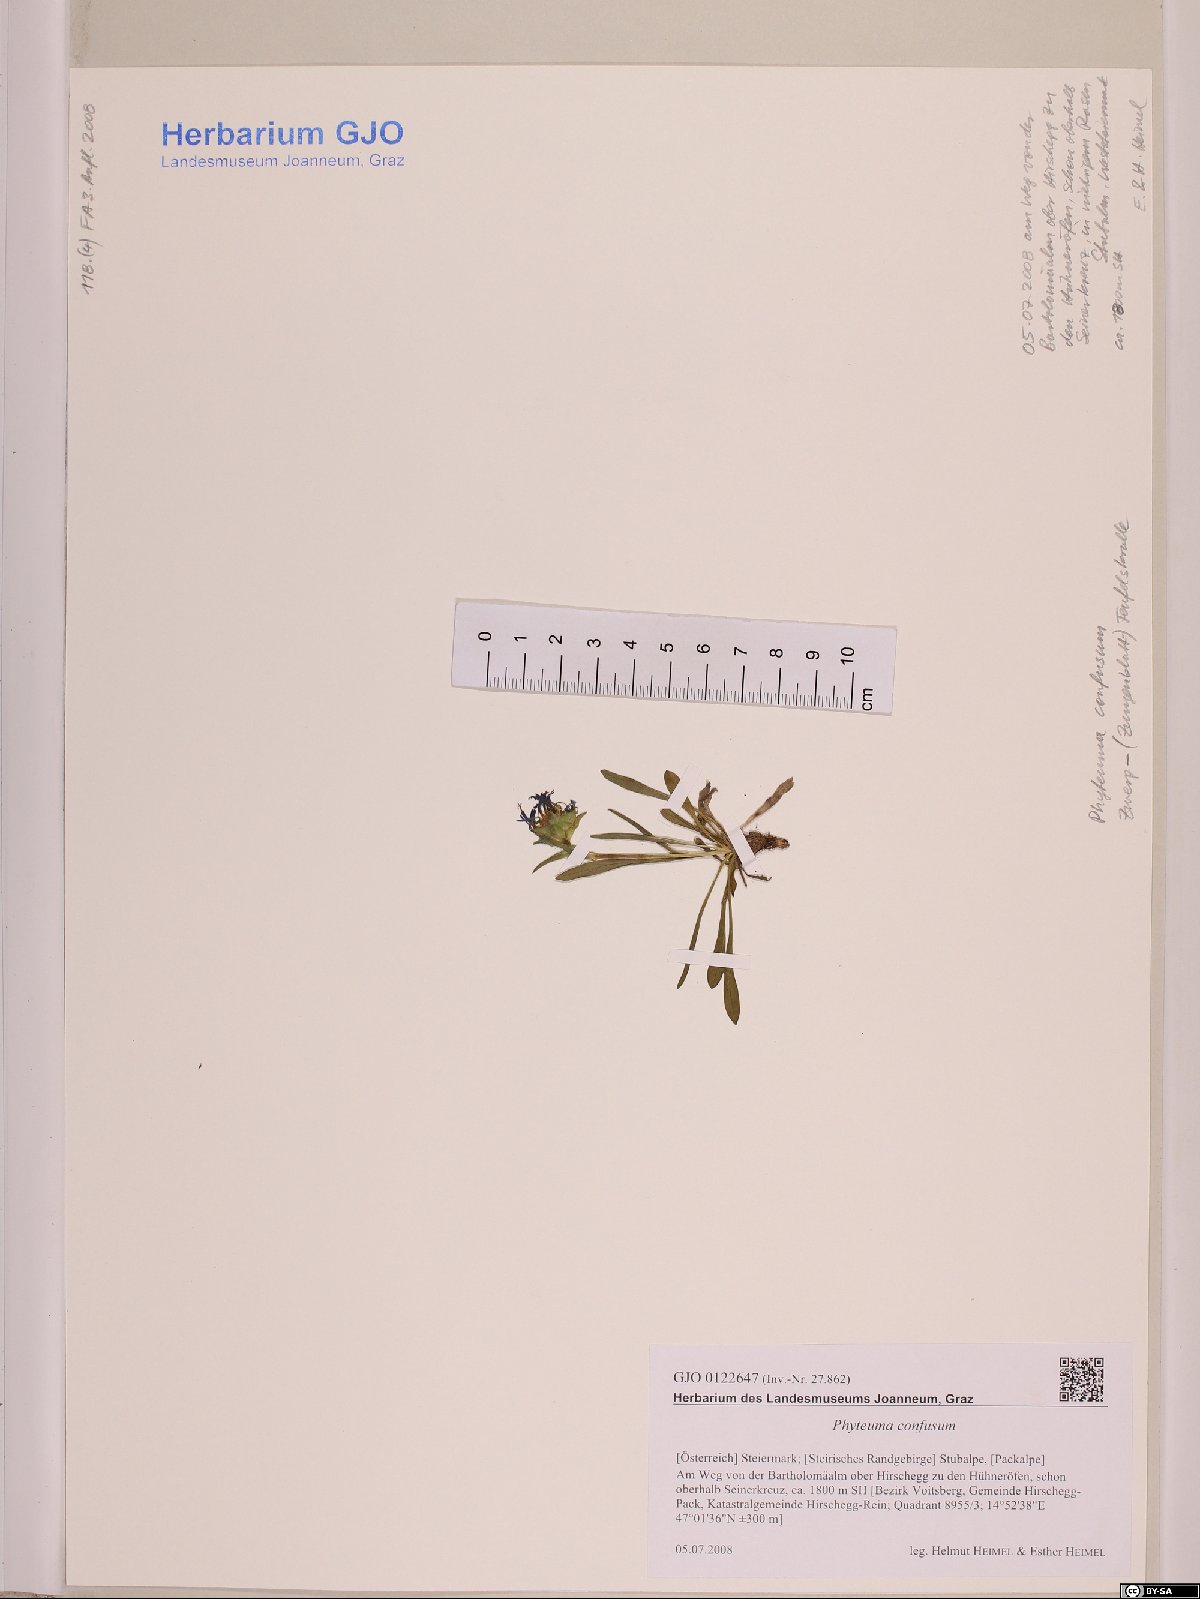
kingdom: Plantae
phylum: Tracheophyta
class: Magnoliopsida
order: Asterales
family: Campanulaceae
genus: Phyteuma
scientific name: Phyteuma confusum
